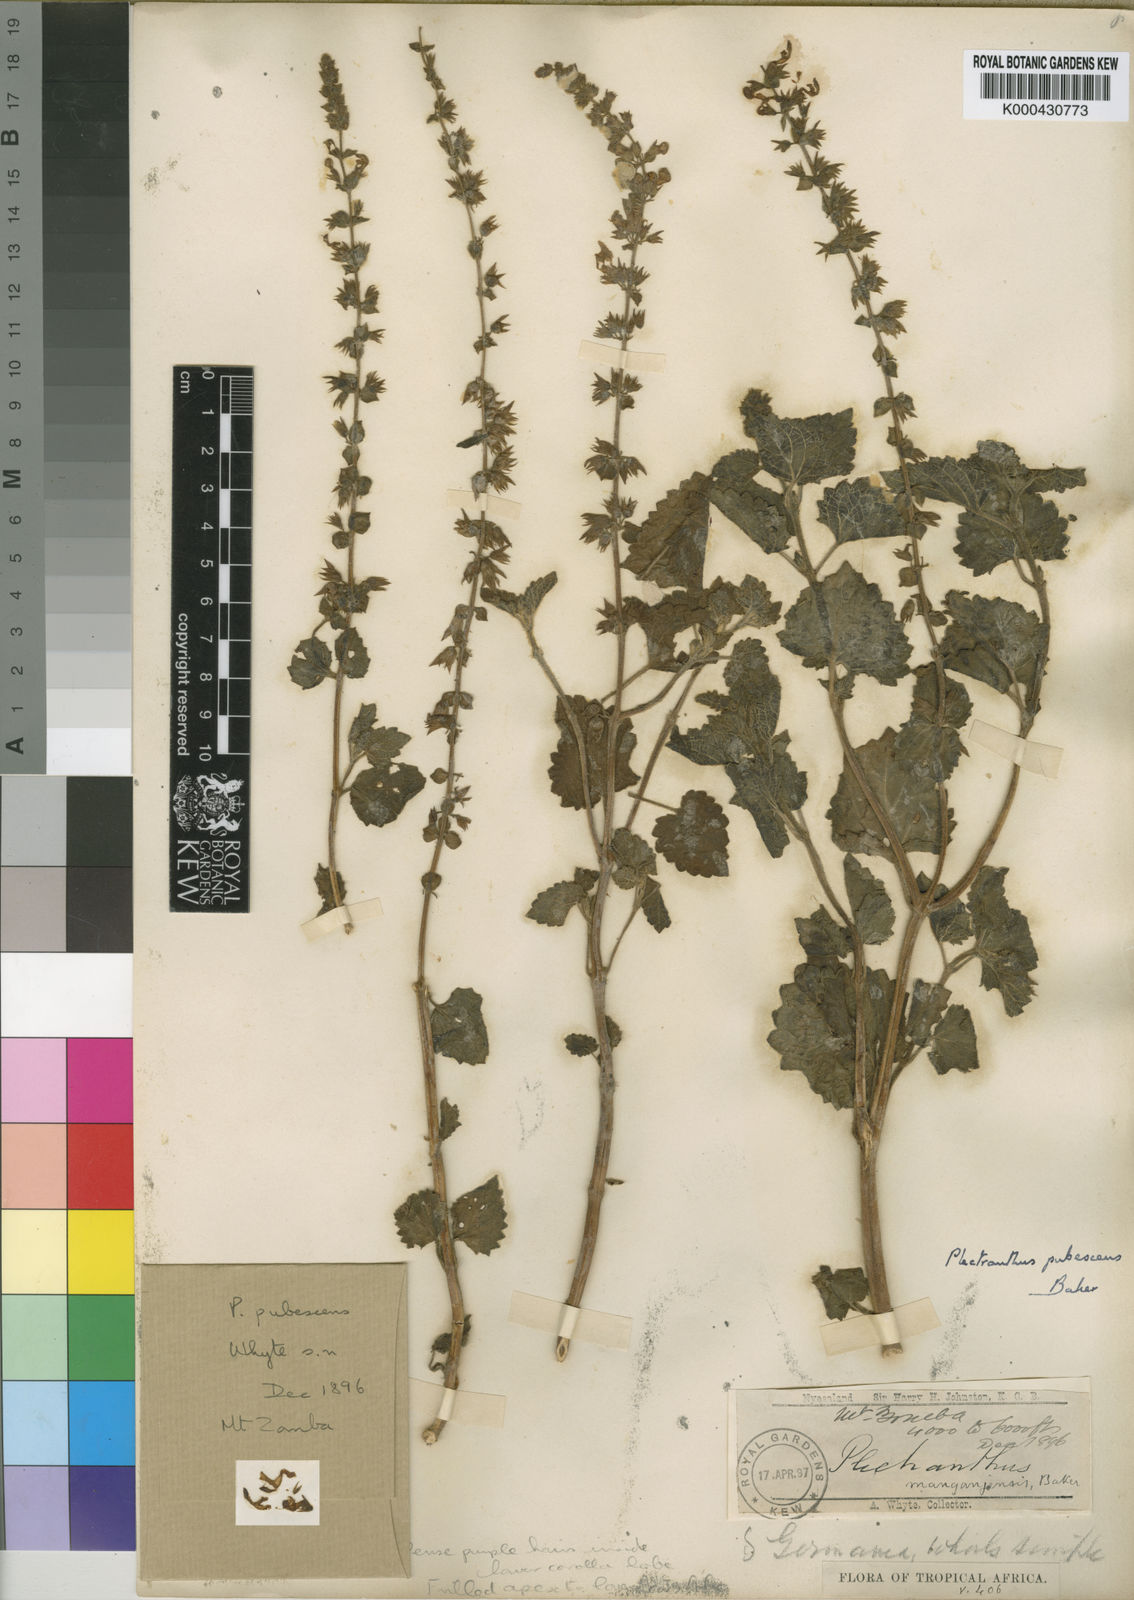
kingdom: Plantae
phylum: Tracheophyta
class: Magnoliopsida
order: Lamiales
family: Lamiaceae
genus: Equilabium
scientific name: Equilabium pubescens
